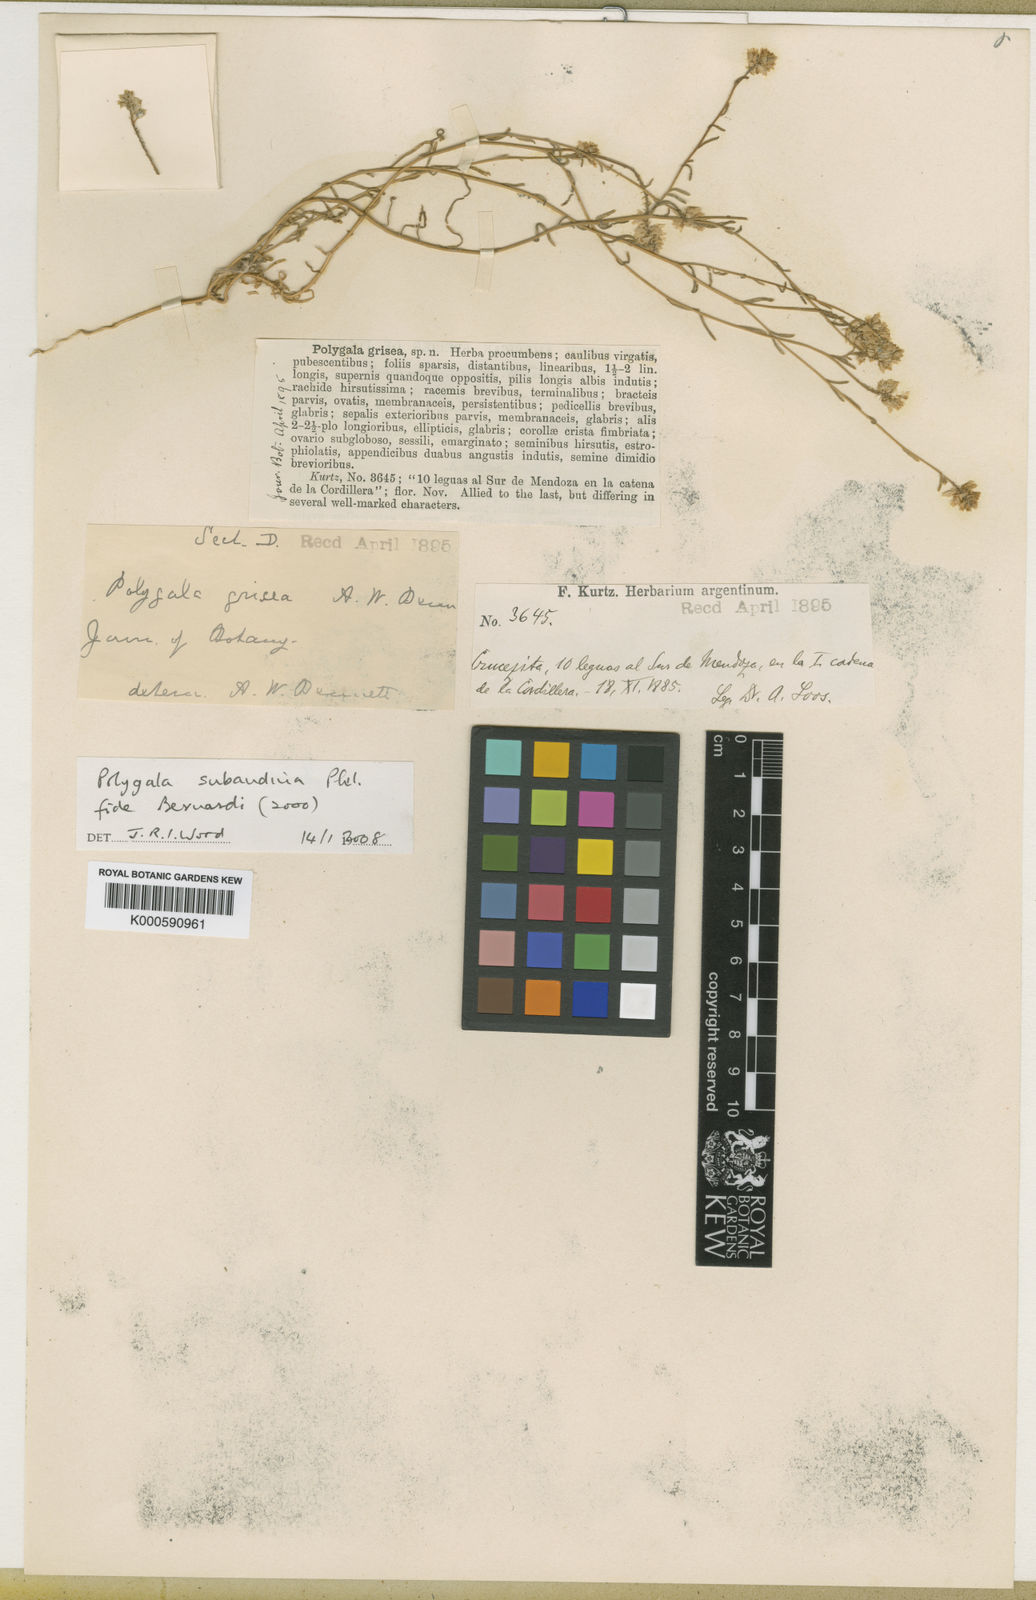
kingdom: Plantae
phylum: Tracheophyta
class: Magnoliopsida
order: Fabales
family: Polygalaceae
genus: Polygala
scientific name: Polygala subandina
